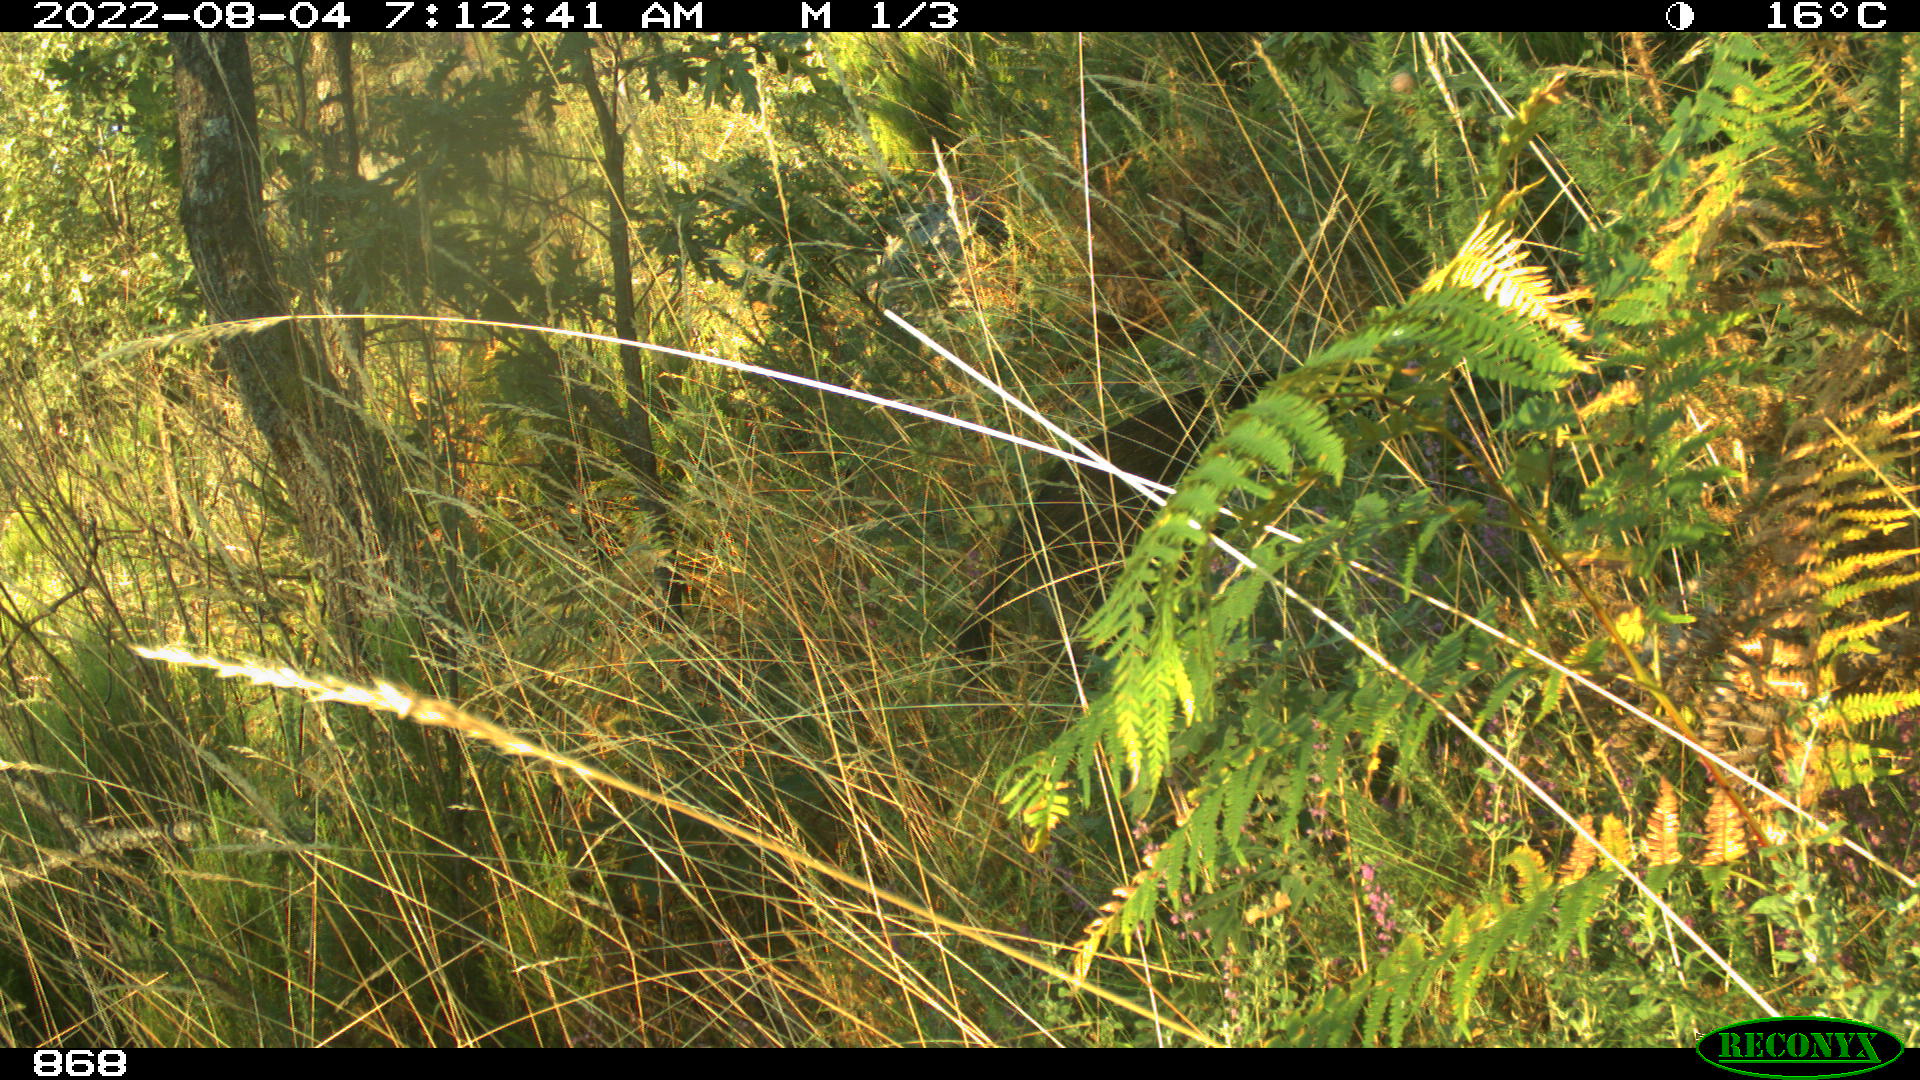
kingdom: Animalia
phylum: Chordata
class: Mammalia
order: Artiodactyla
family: Suidae
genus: Sus
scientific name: Sus scrofa
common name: Wild boar
